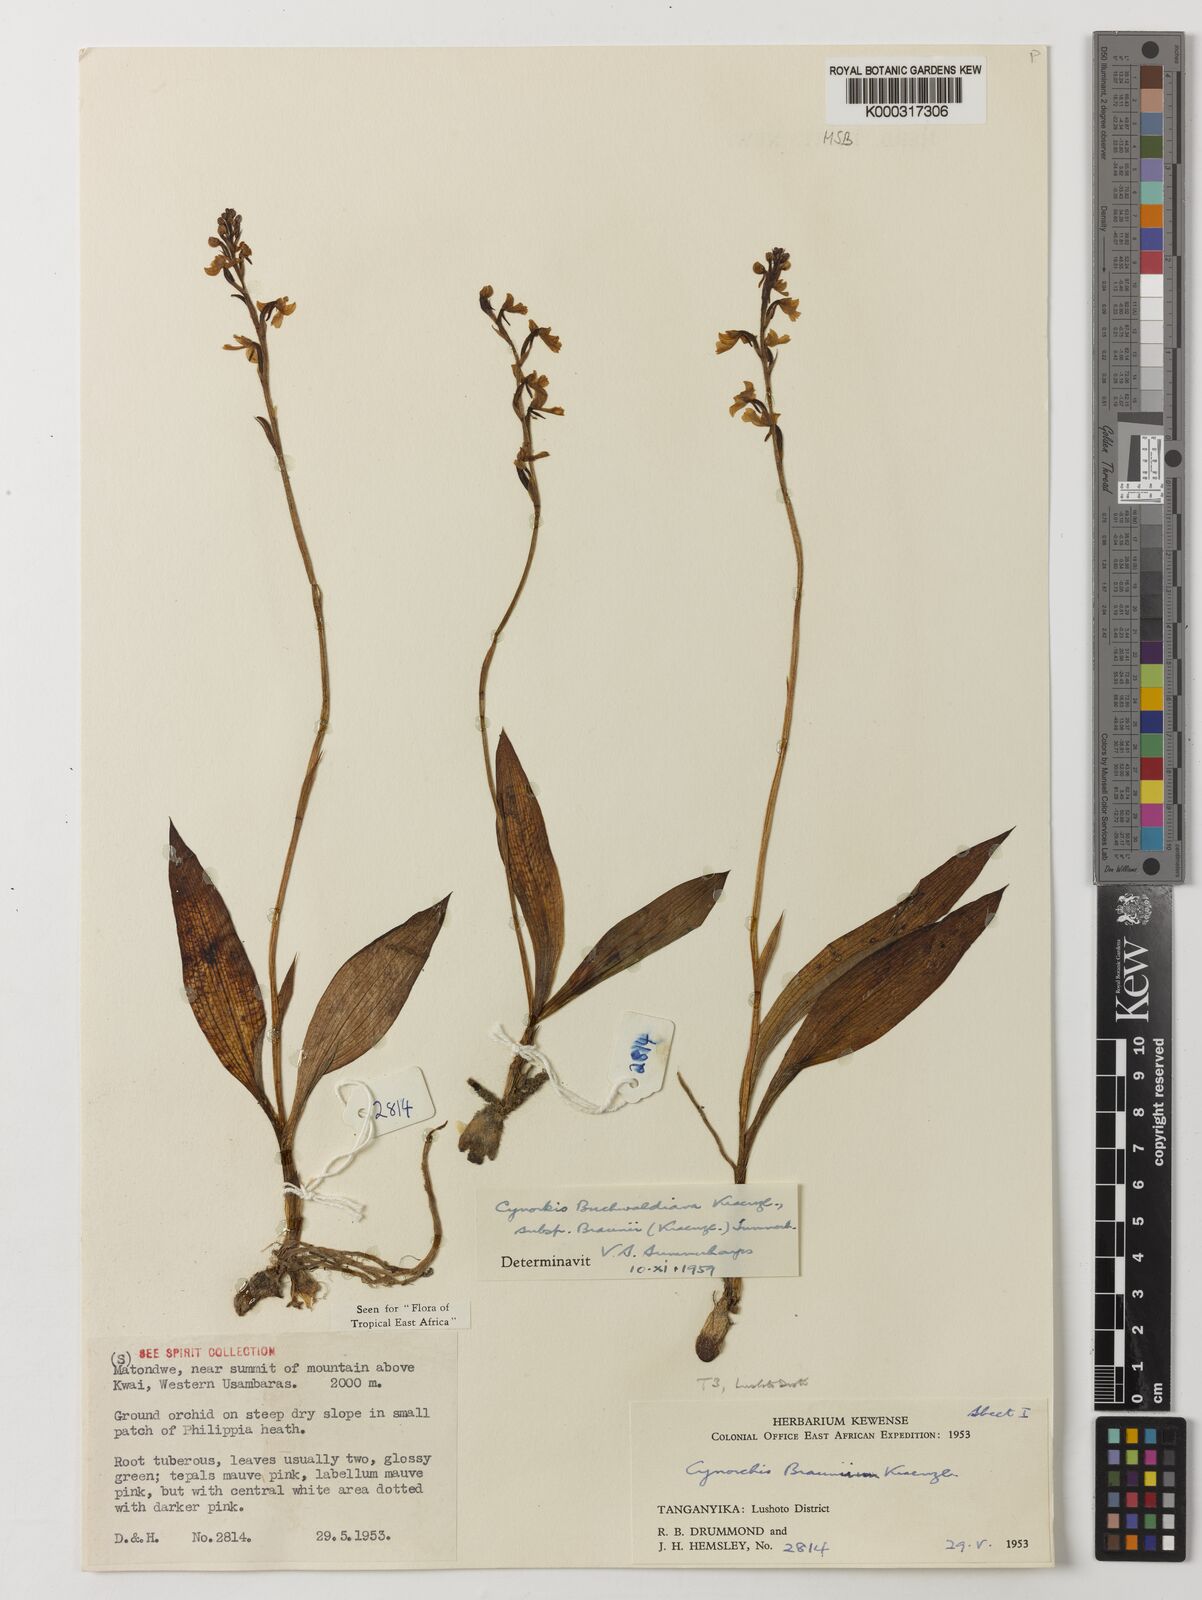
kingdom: Plantae
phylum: Tracheophyta
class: Liliopsida
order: Asparagales
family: Orchidaceae
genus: Cynorkis
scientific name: Cynorkis buchwaldiana
